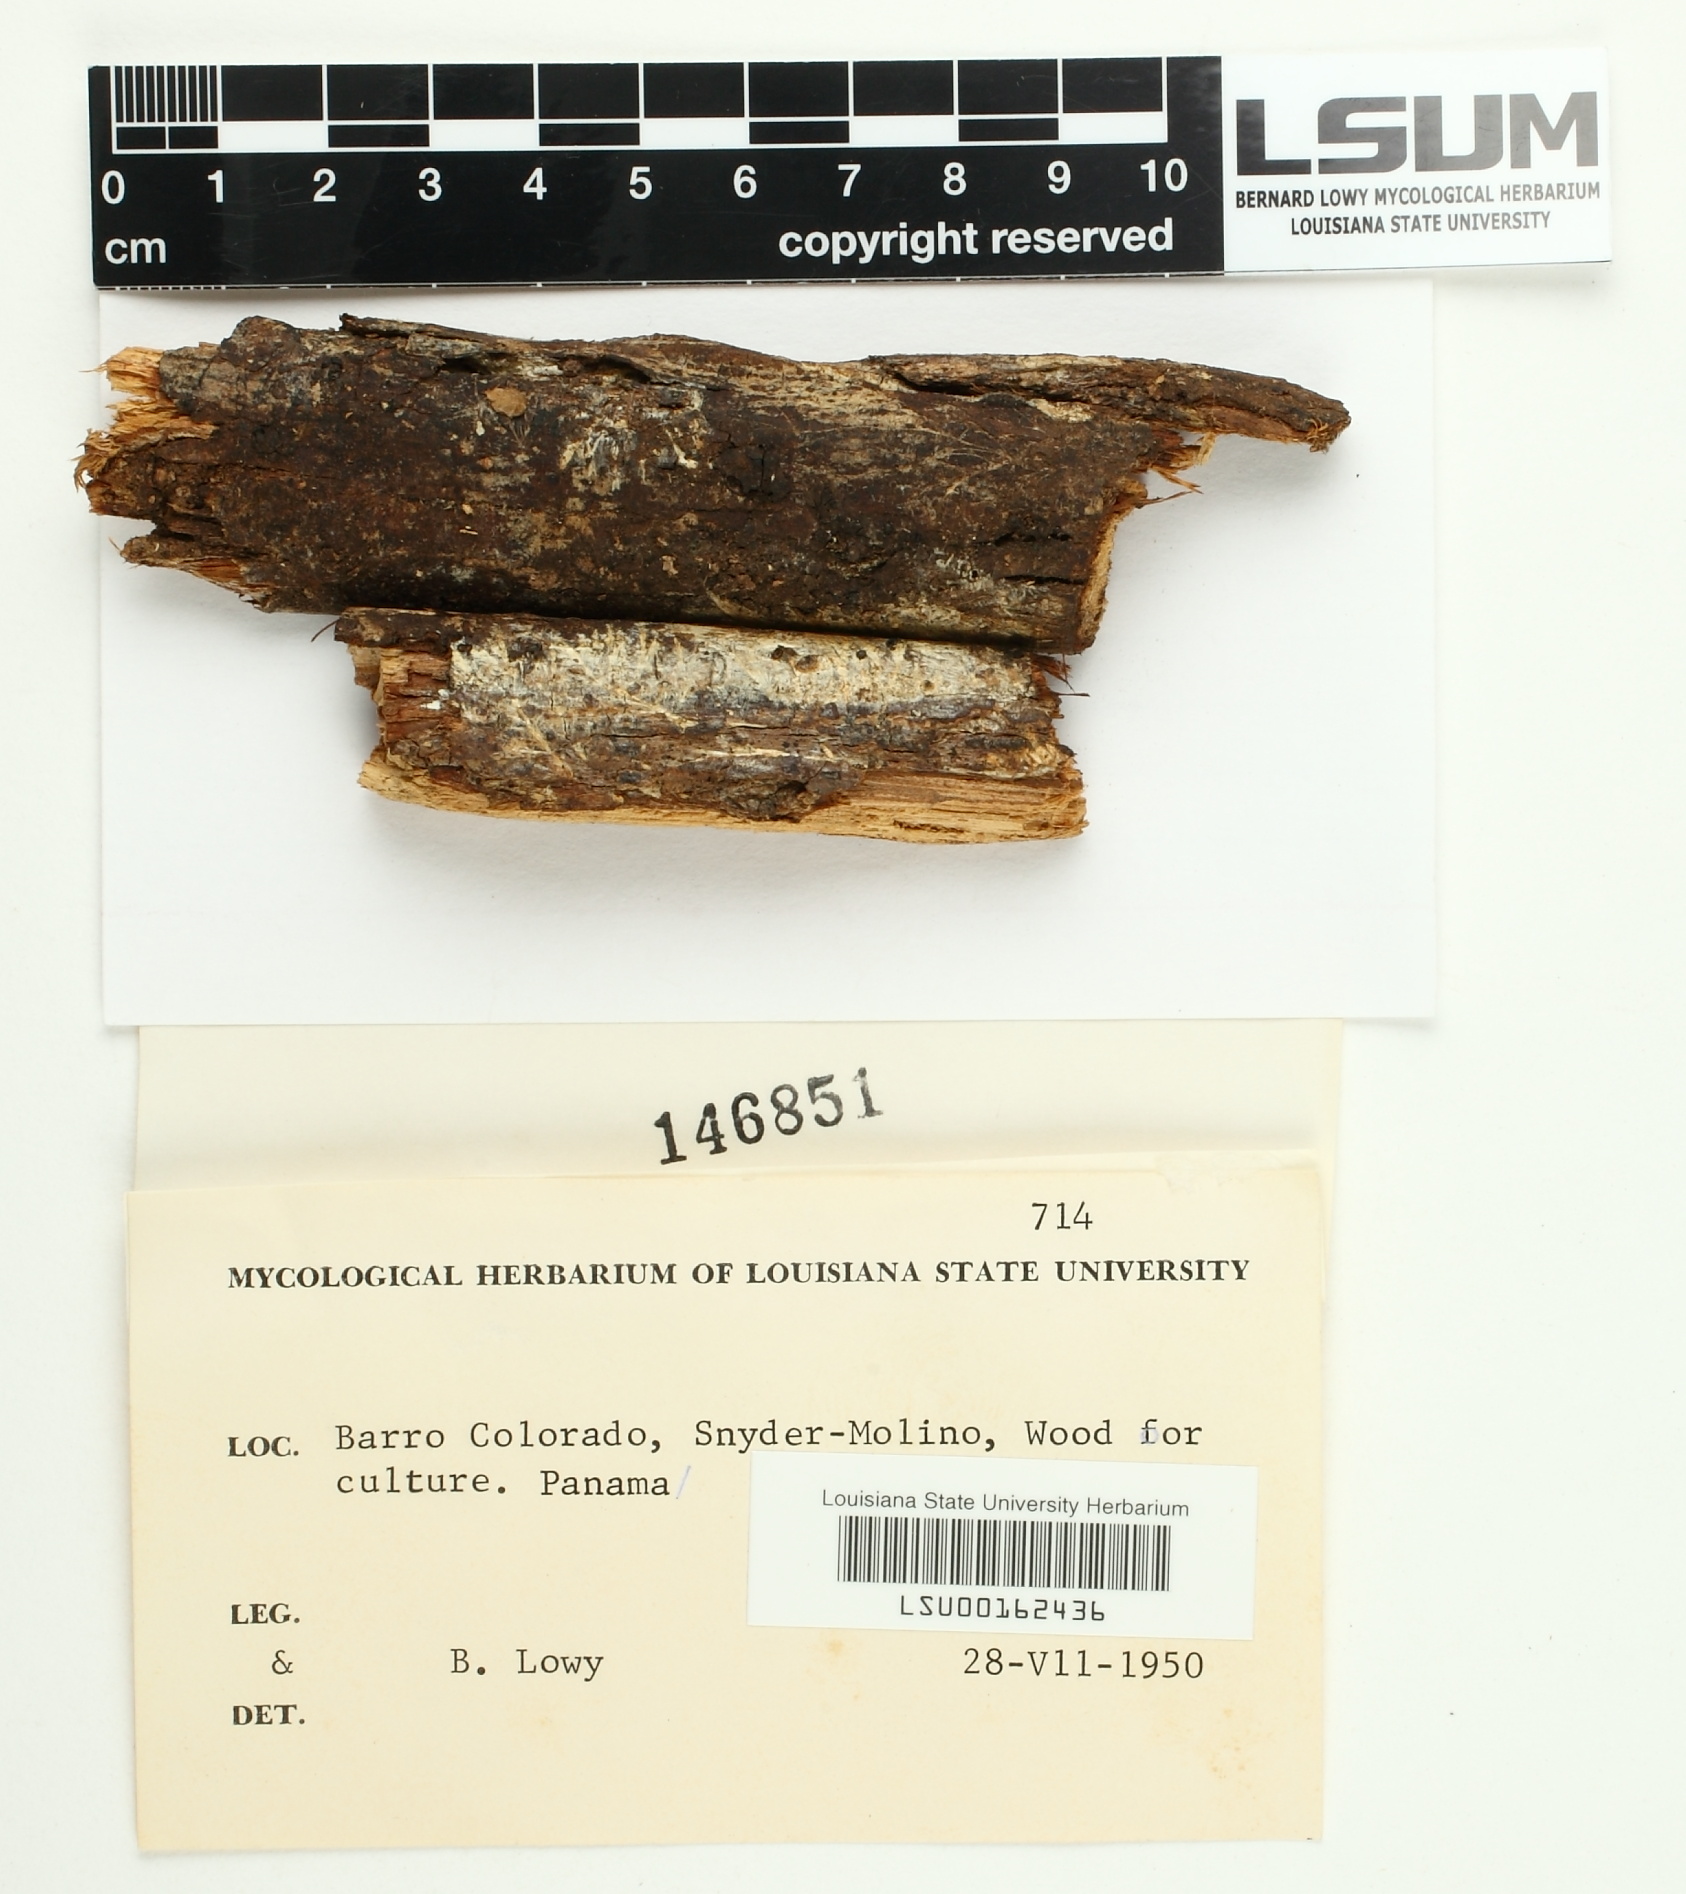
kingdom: Fungi
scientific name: Fungi
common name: Fungi
